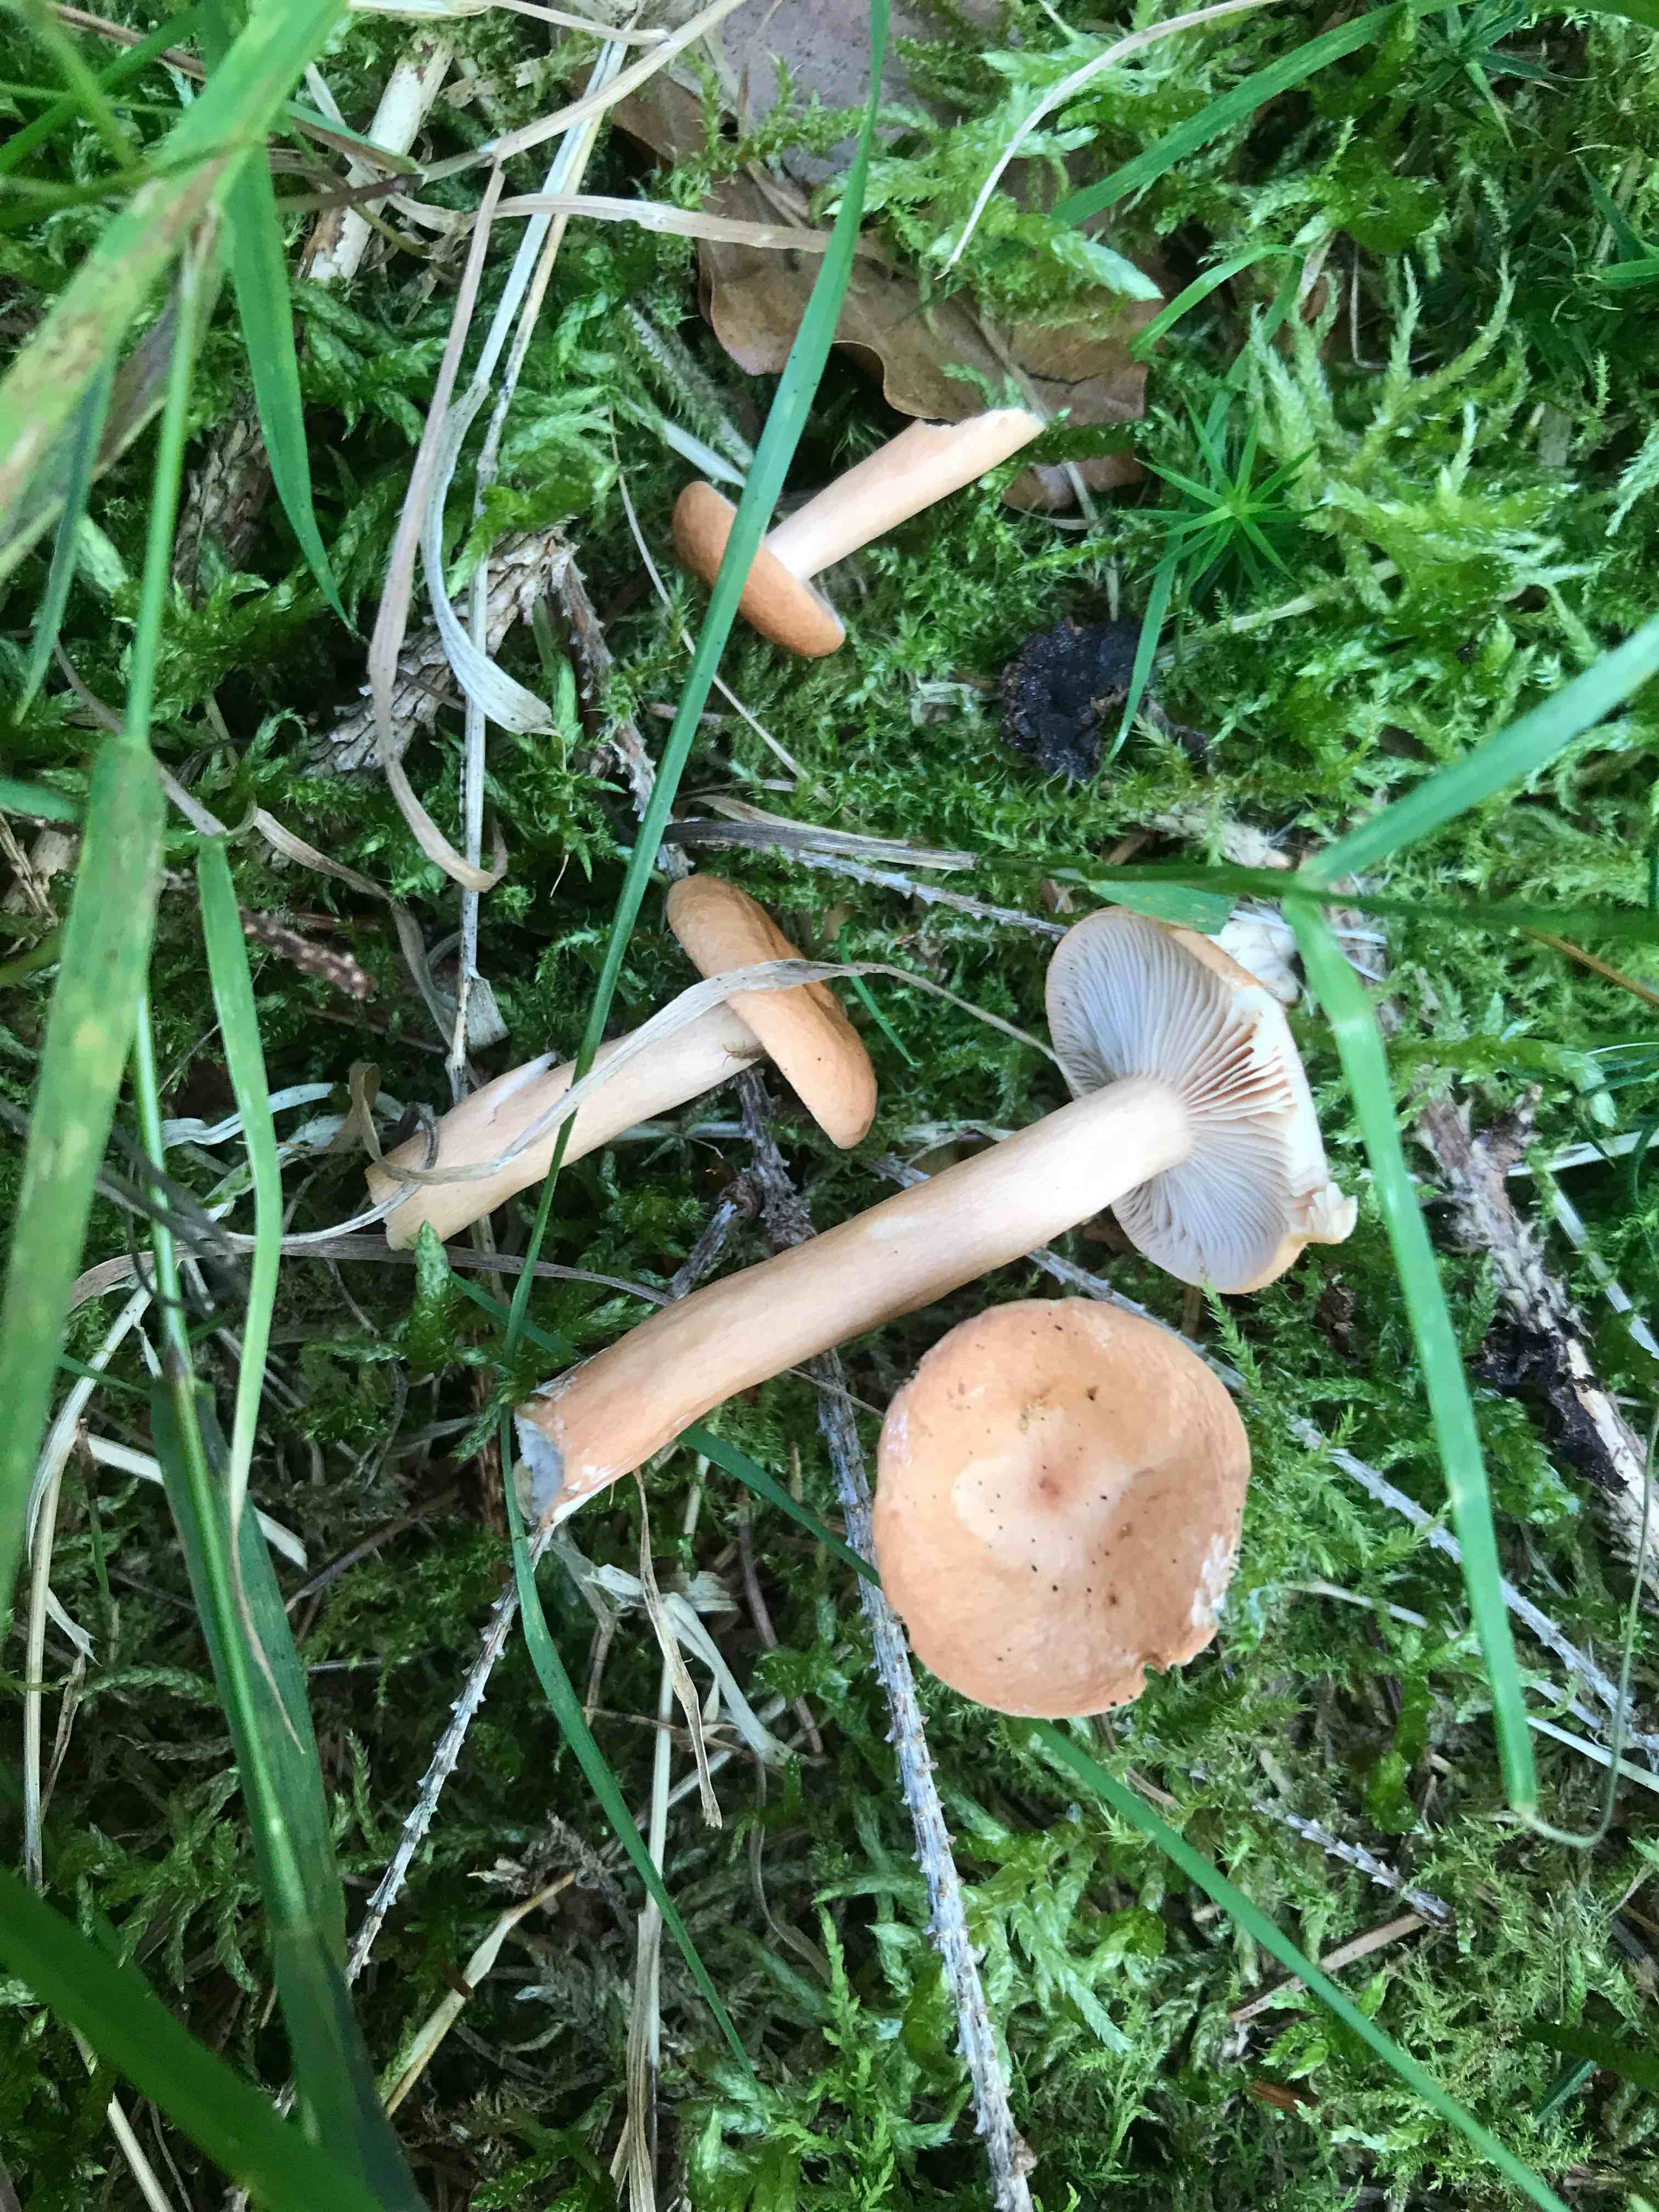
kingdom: Fungi
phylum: Basidiomycota
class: Agaricomycetes
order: Russulales
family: Russulaceae
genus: Lactarius
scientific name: Lactarius tabidus
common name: rynket mælkehat
